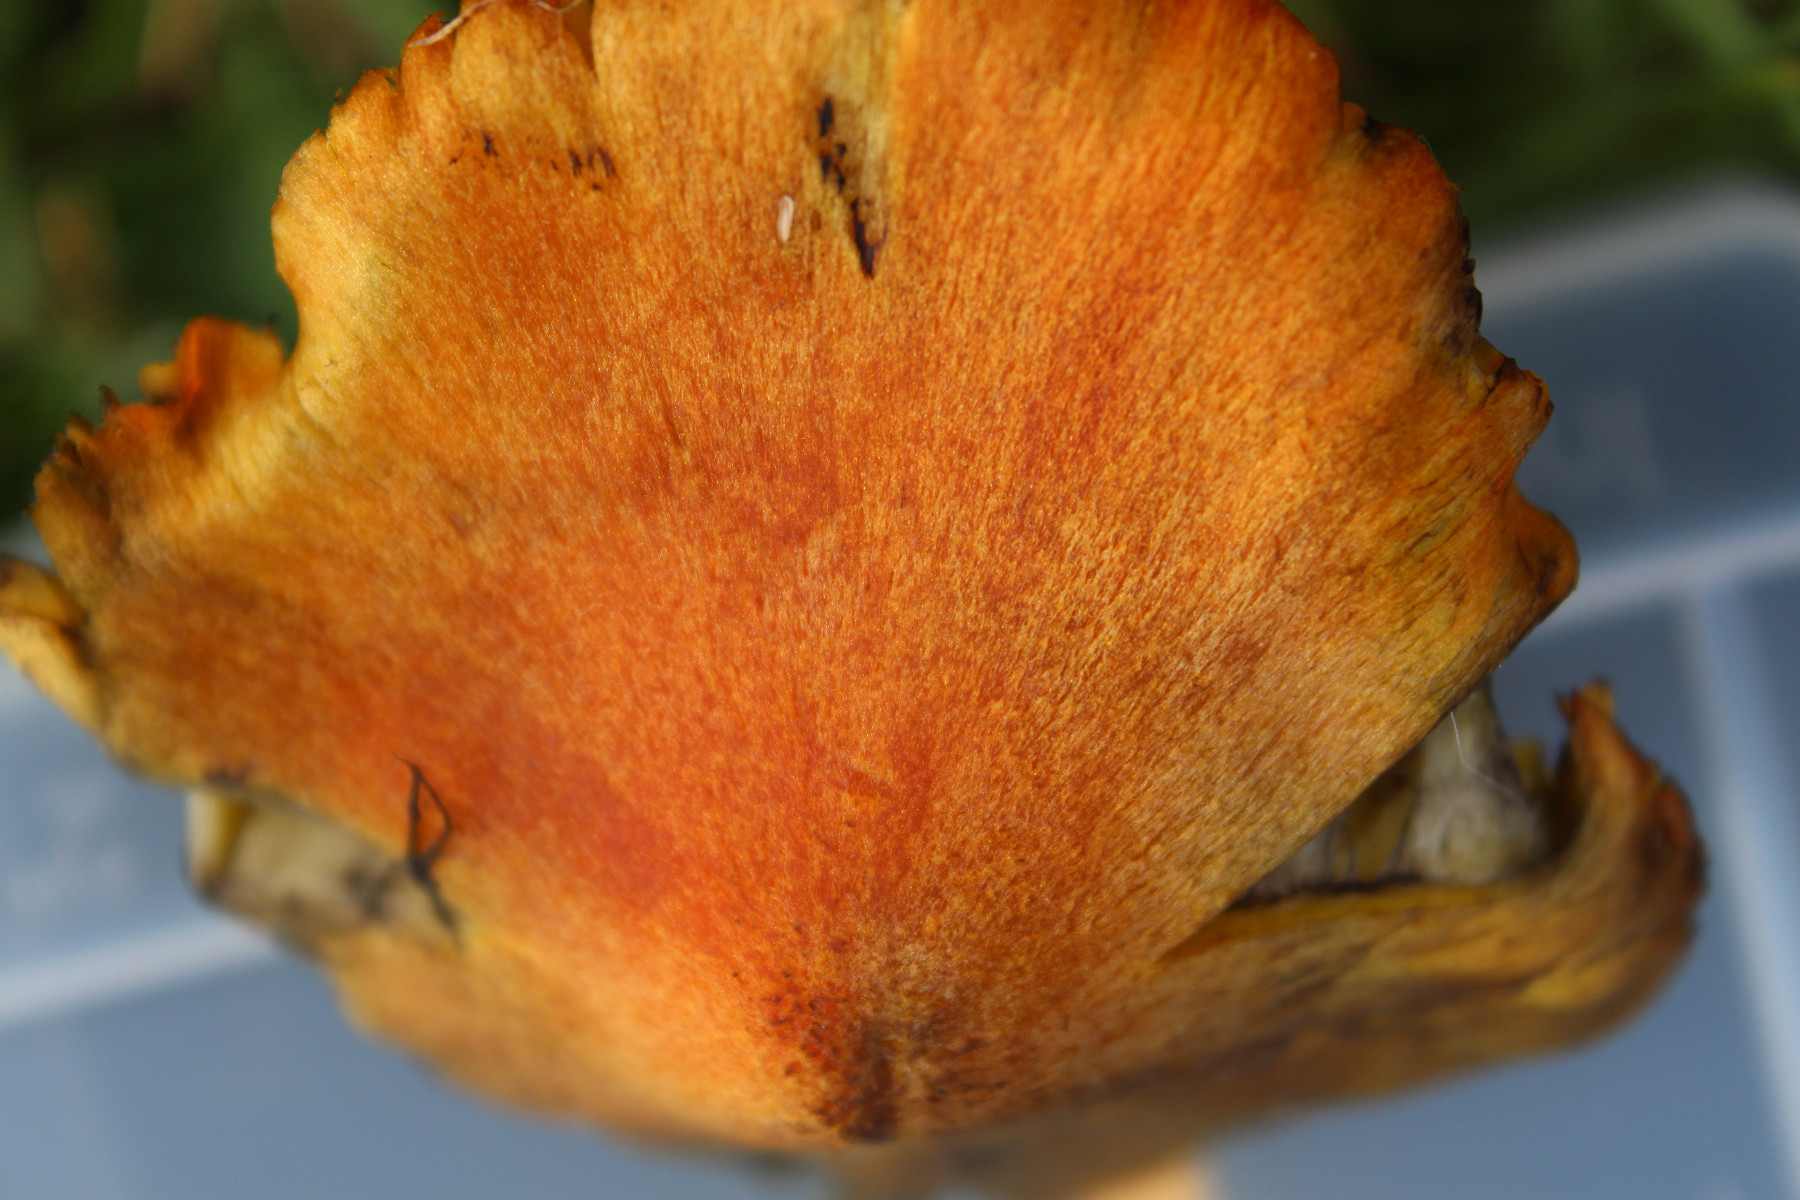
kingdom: Fungi
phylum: Basidiomycota
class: Agaricomycetes
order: Agaricales
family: Hygrophoraceae
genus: Hygrocybe
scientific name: Hygrocybe conica
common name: kegle-vokshat
